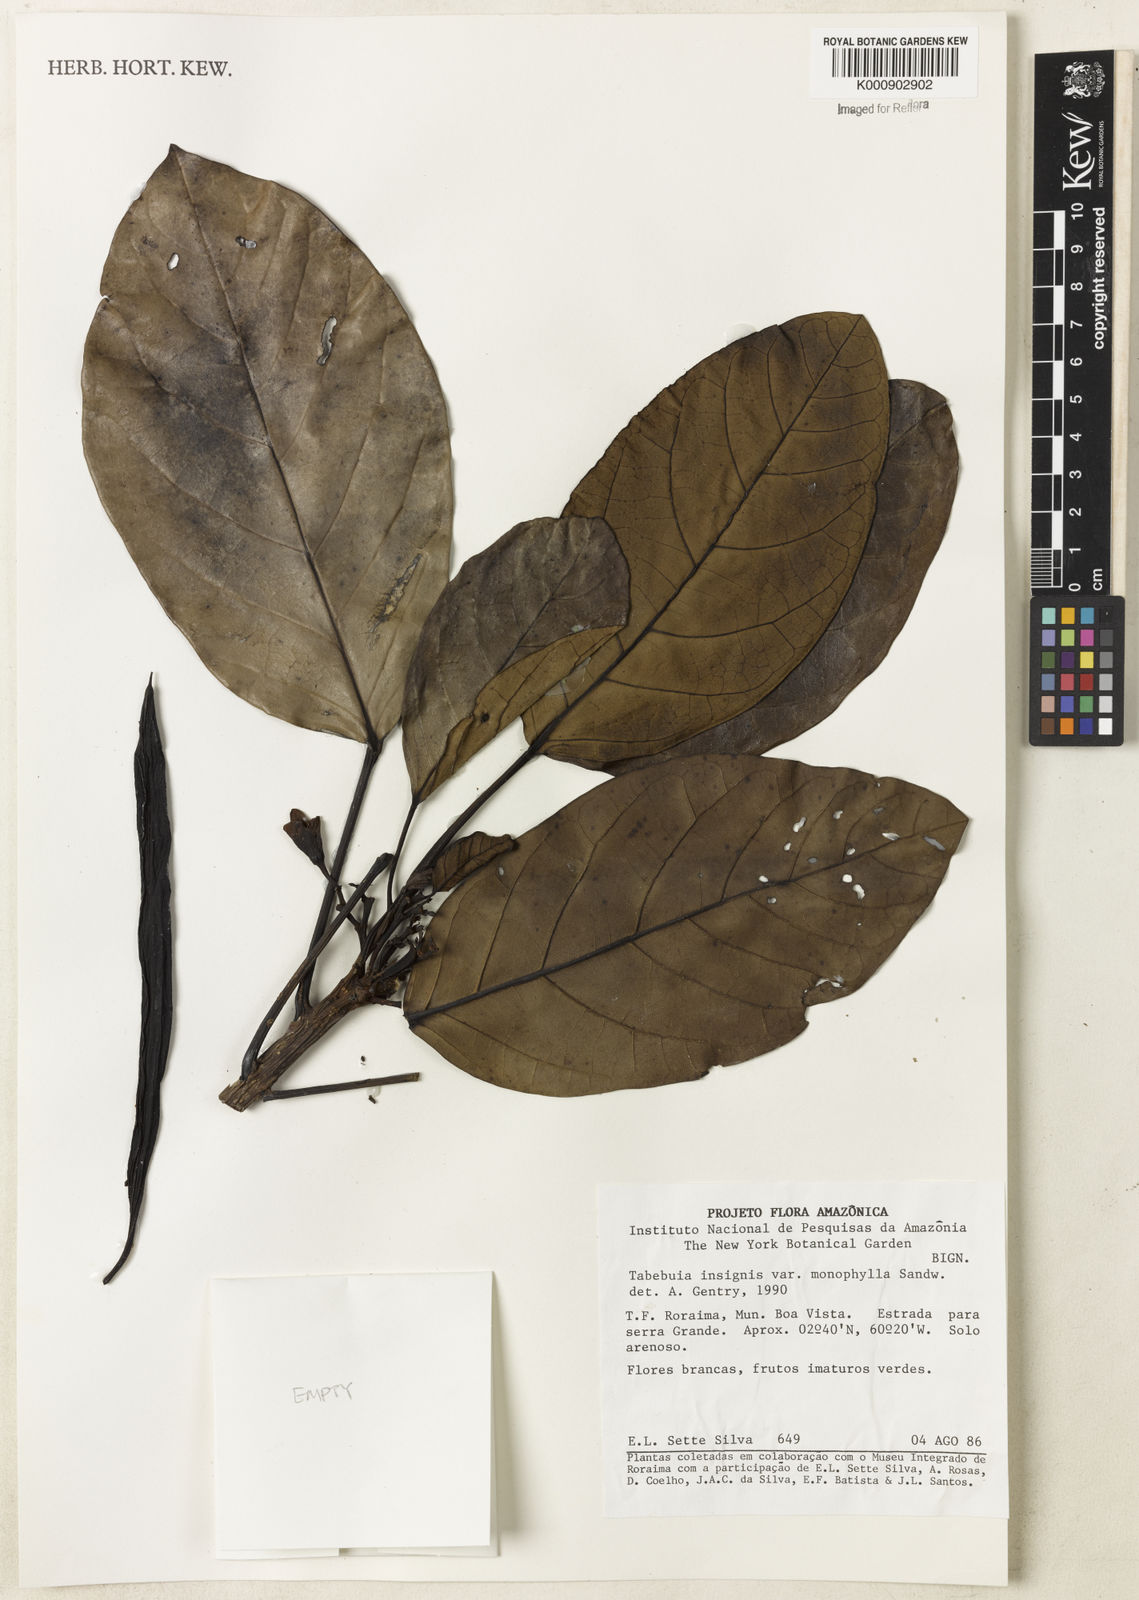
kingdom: Plantae
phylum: Tracheophyta
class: Magnoliopsida
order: Lamiales
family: Bignoniaceae
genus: Tabebuia
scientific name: Tabebuia insignis
